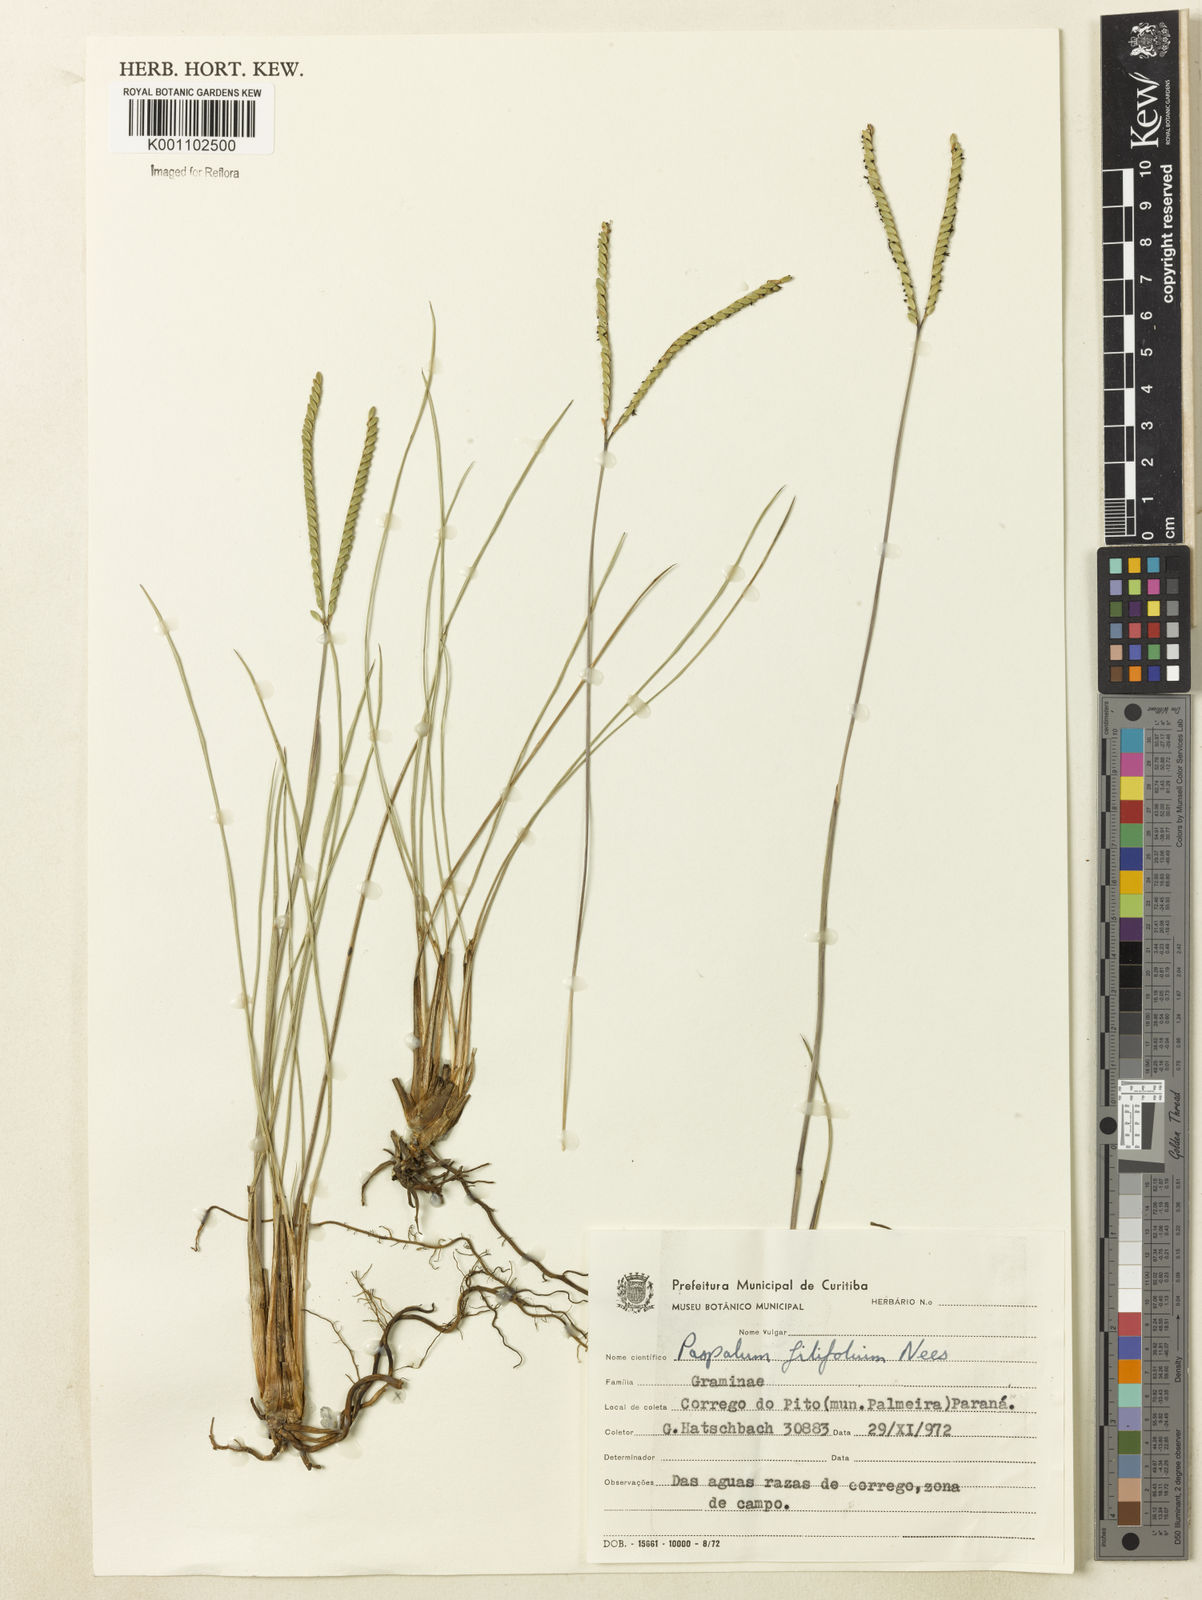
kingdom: Plantae
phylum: Tracheophyta
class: Liliopsida
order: Poales
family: Poaceae
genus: Paspalum
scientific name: Paspalum filifolium
